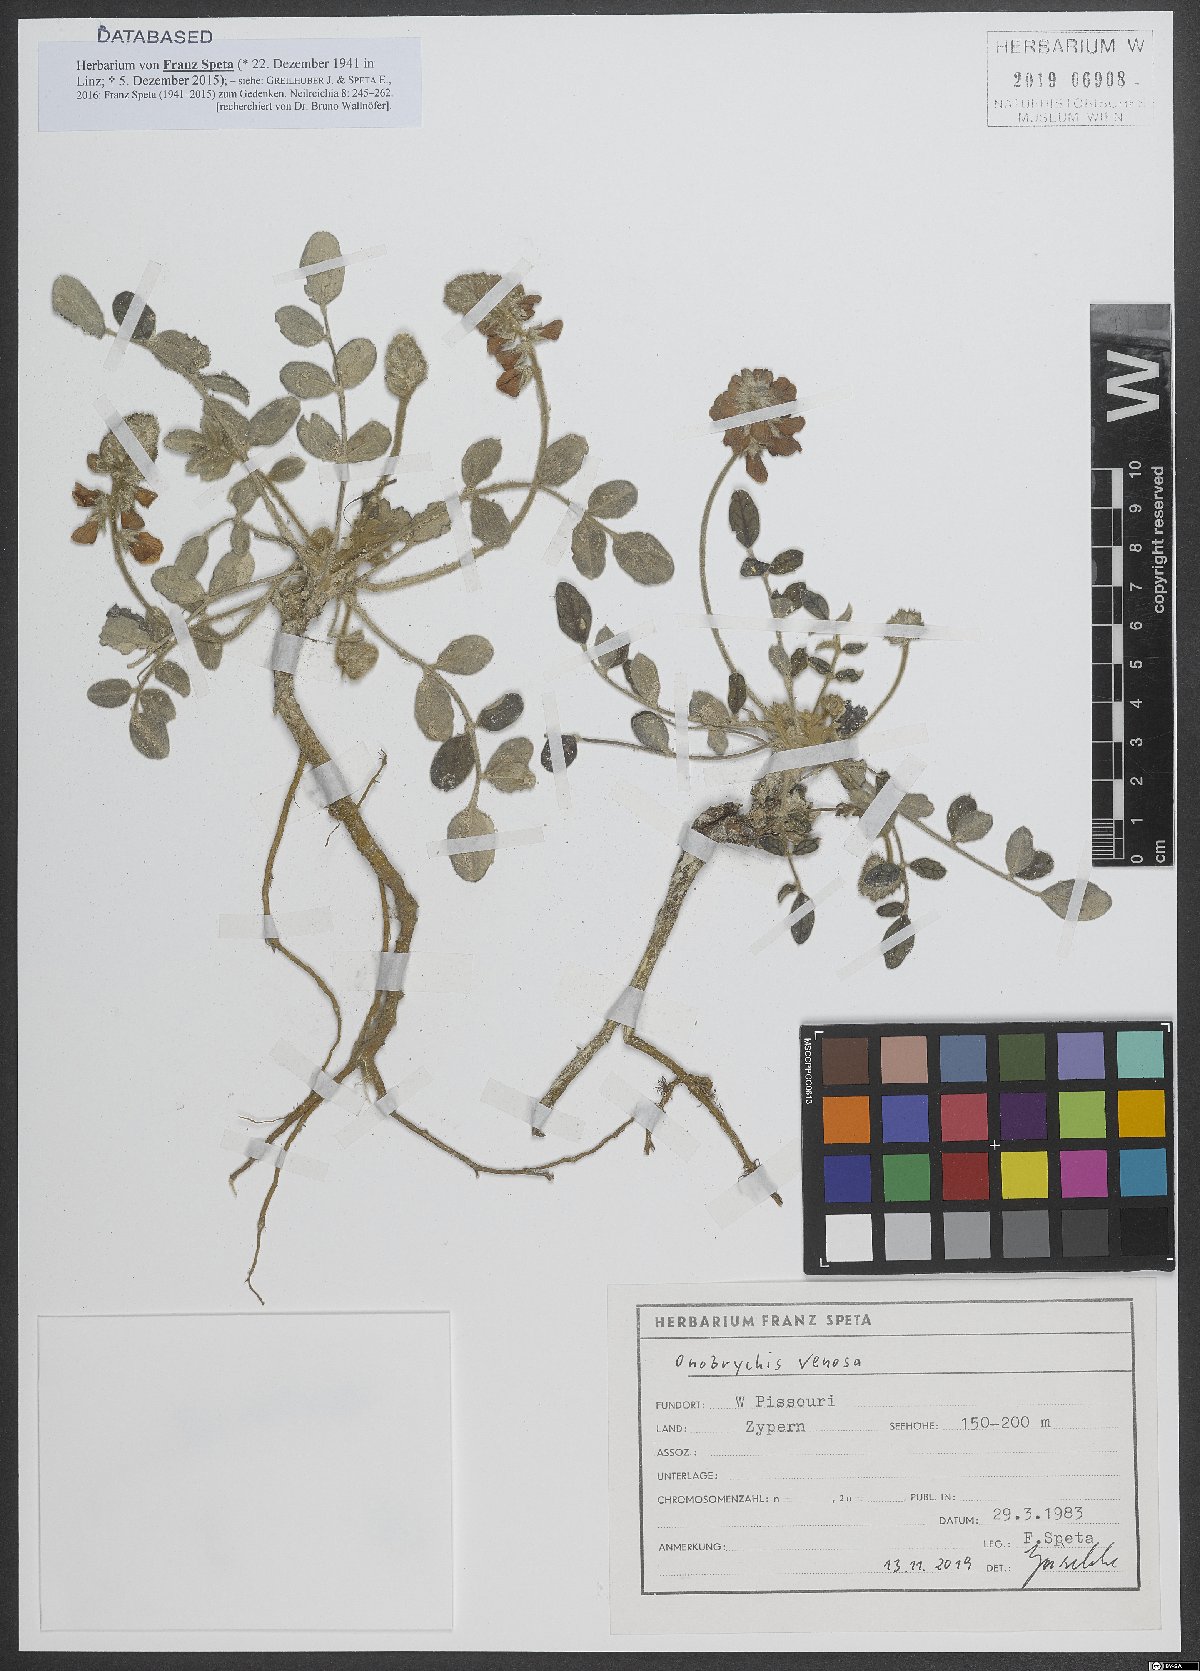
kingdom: Plantae
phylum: Tracheophyta
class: Magnoliopsida
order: Fabales
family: Fabaceae
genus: Onobrychis
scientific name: Onobrychis venosa
